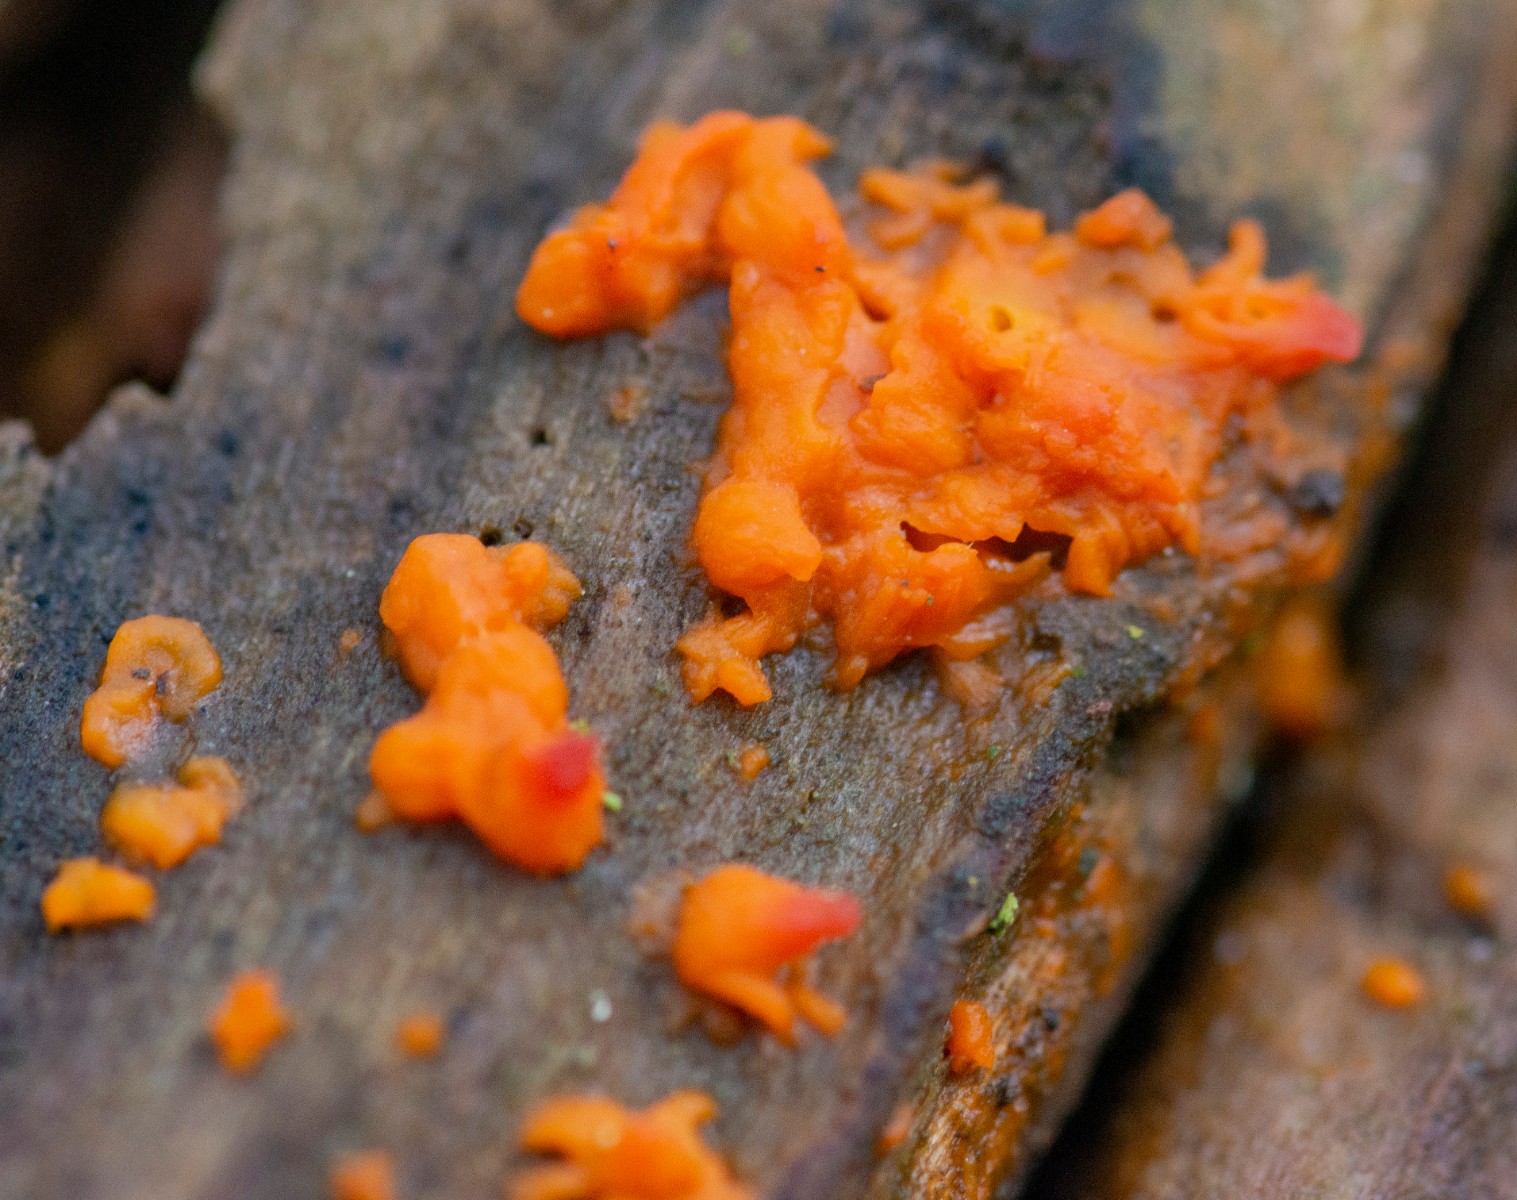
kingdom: Fungi
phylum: Basidiomycota
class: Dacrymycetes
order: Dacrymycetales
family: Dacrymycetaceae
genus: Dacrymyces
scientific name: Dacrymyces stillatus
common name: almindelig tåresvamp
